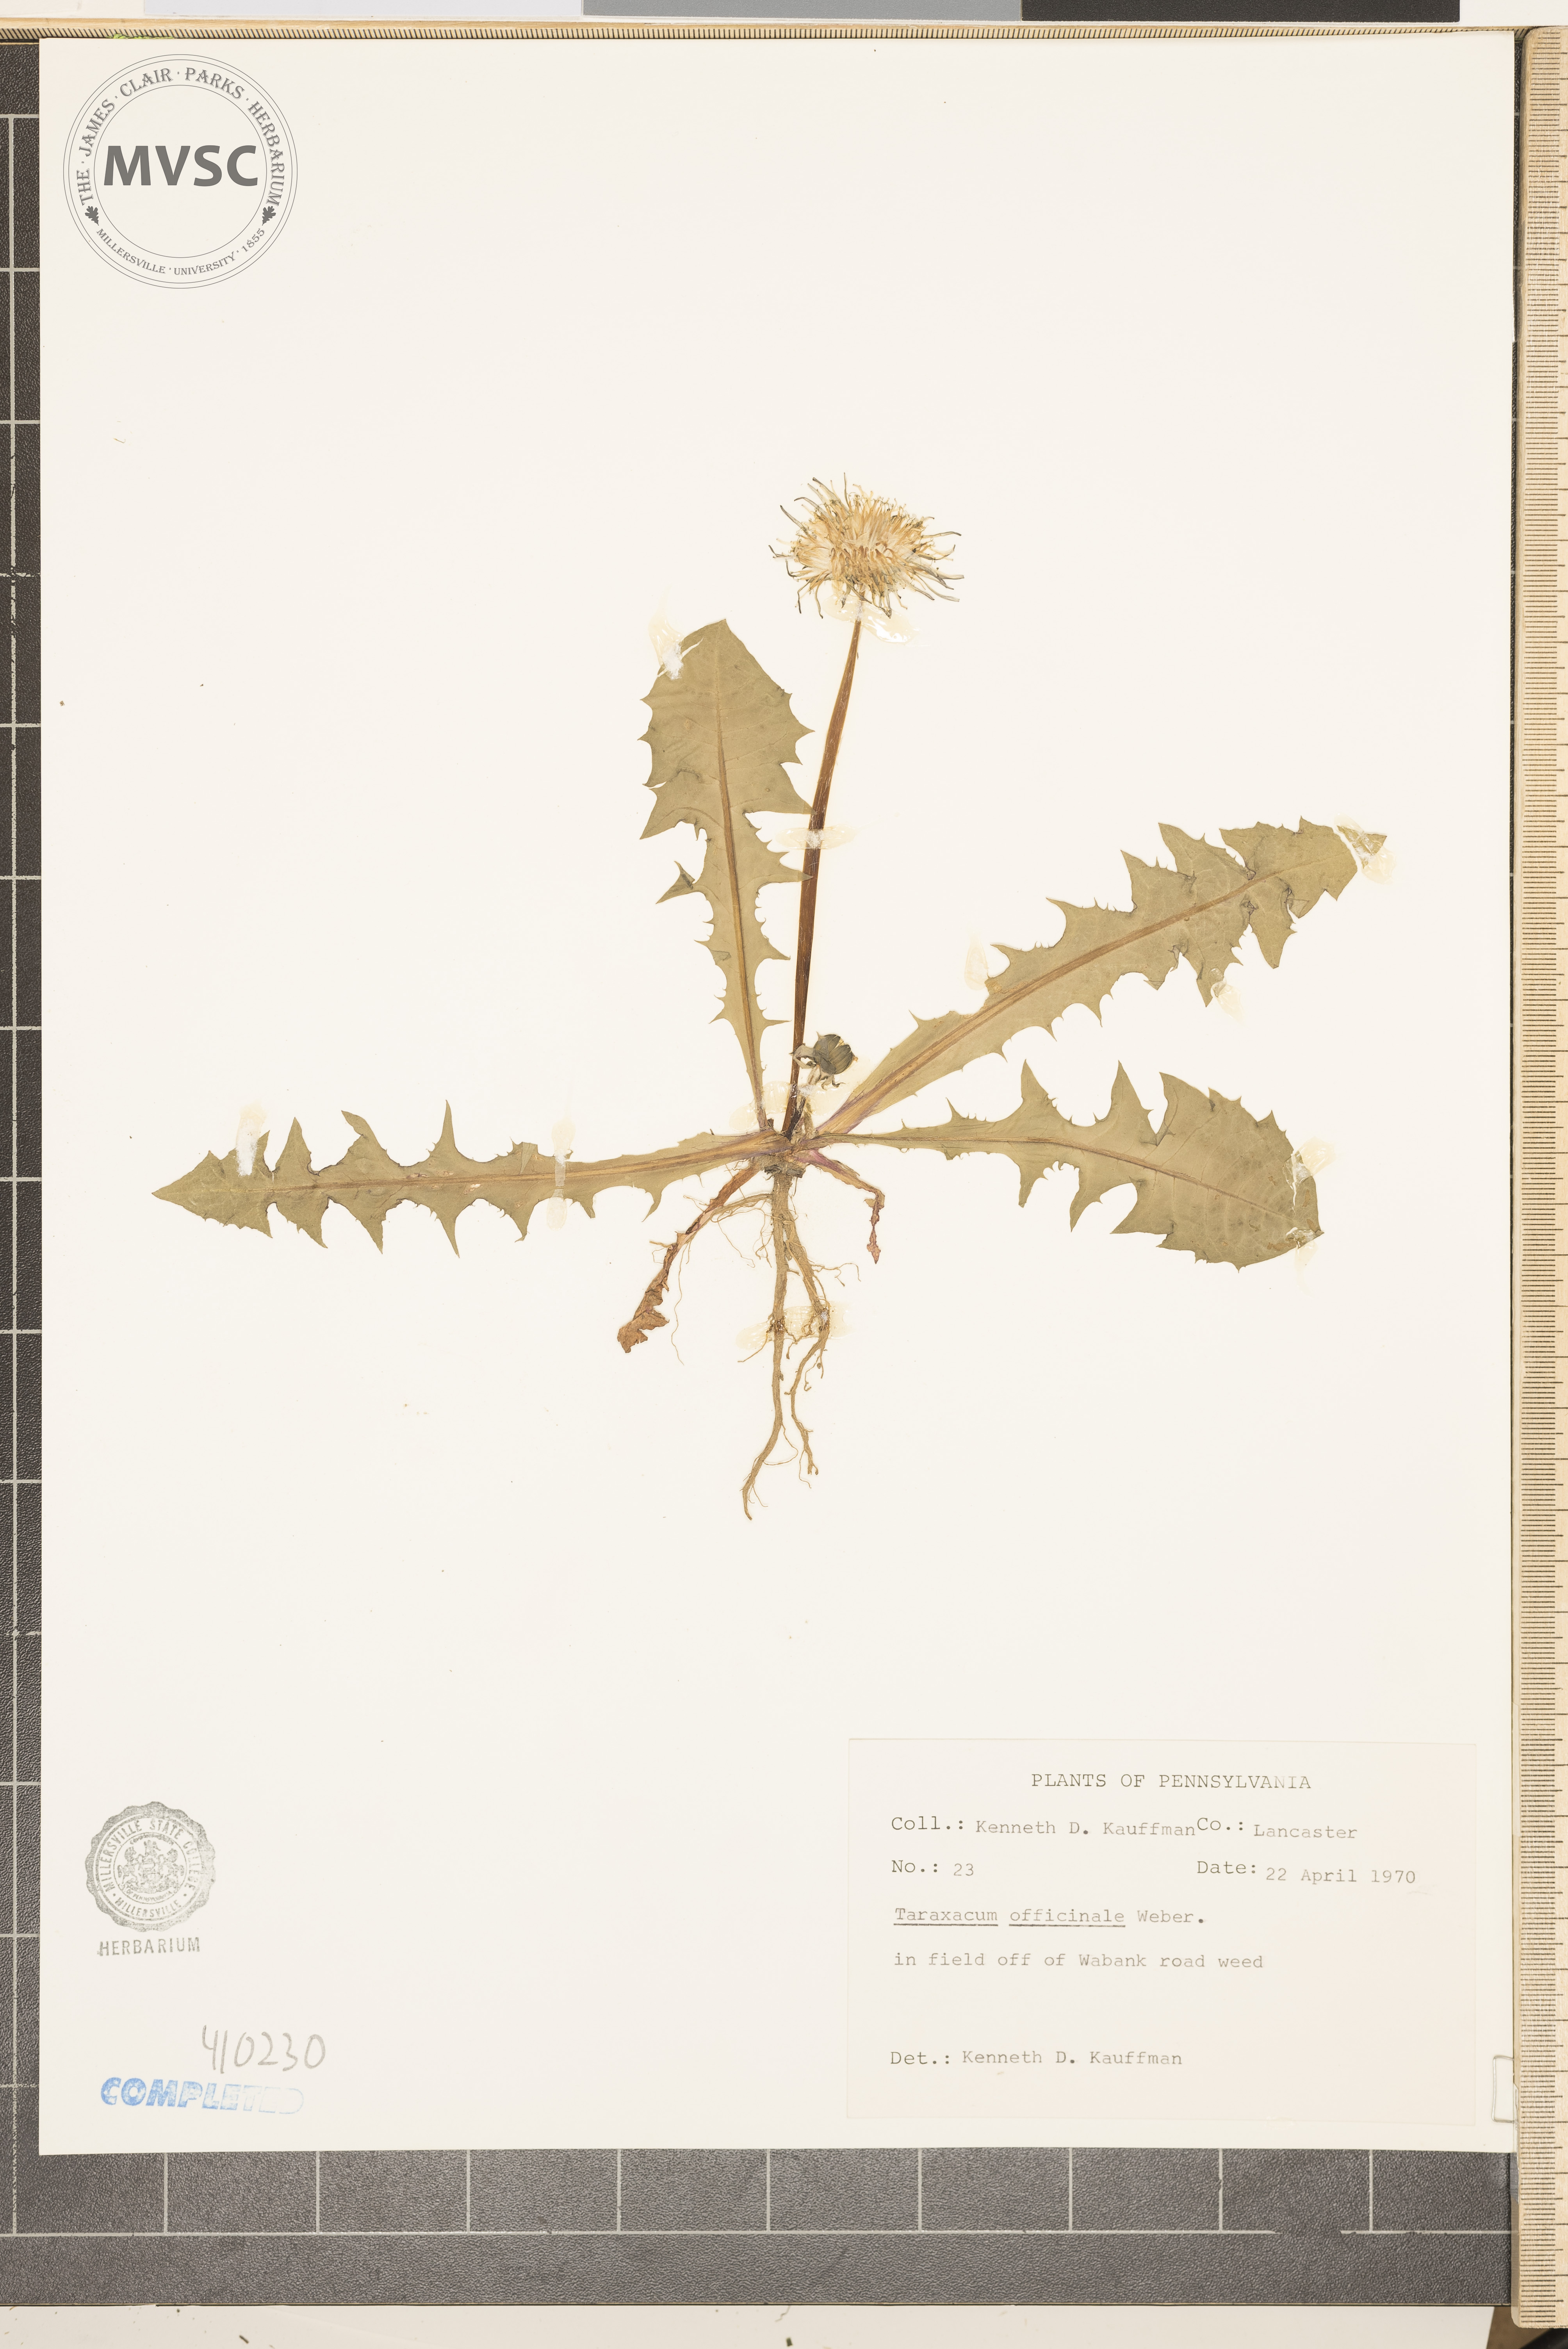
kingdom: Plantae
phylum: Tracheophyta
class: Magnoliopsida
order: Asterales
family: Asteraceae
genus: Taraxacum
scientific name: Taraxacum officinale
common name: Common dandelion
